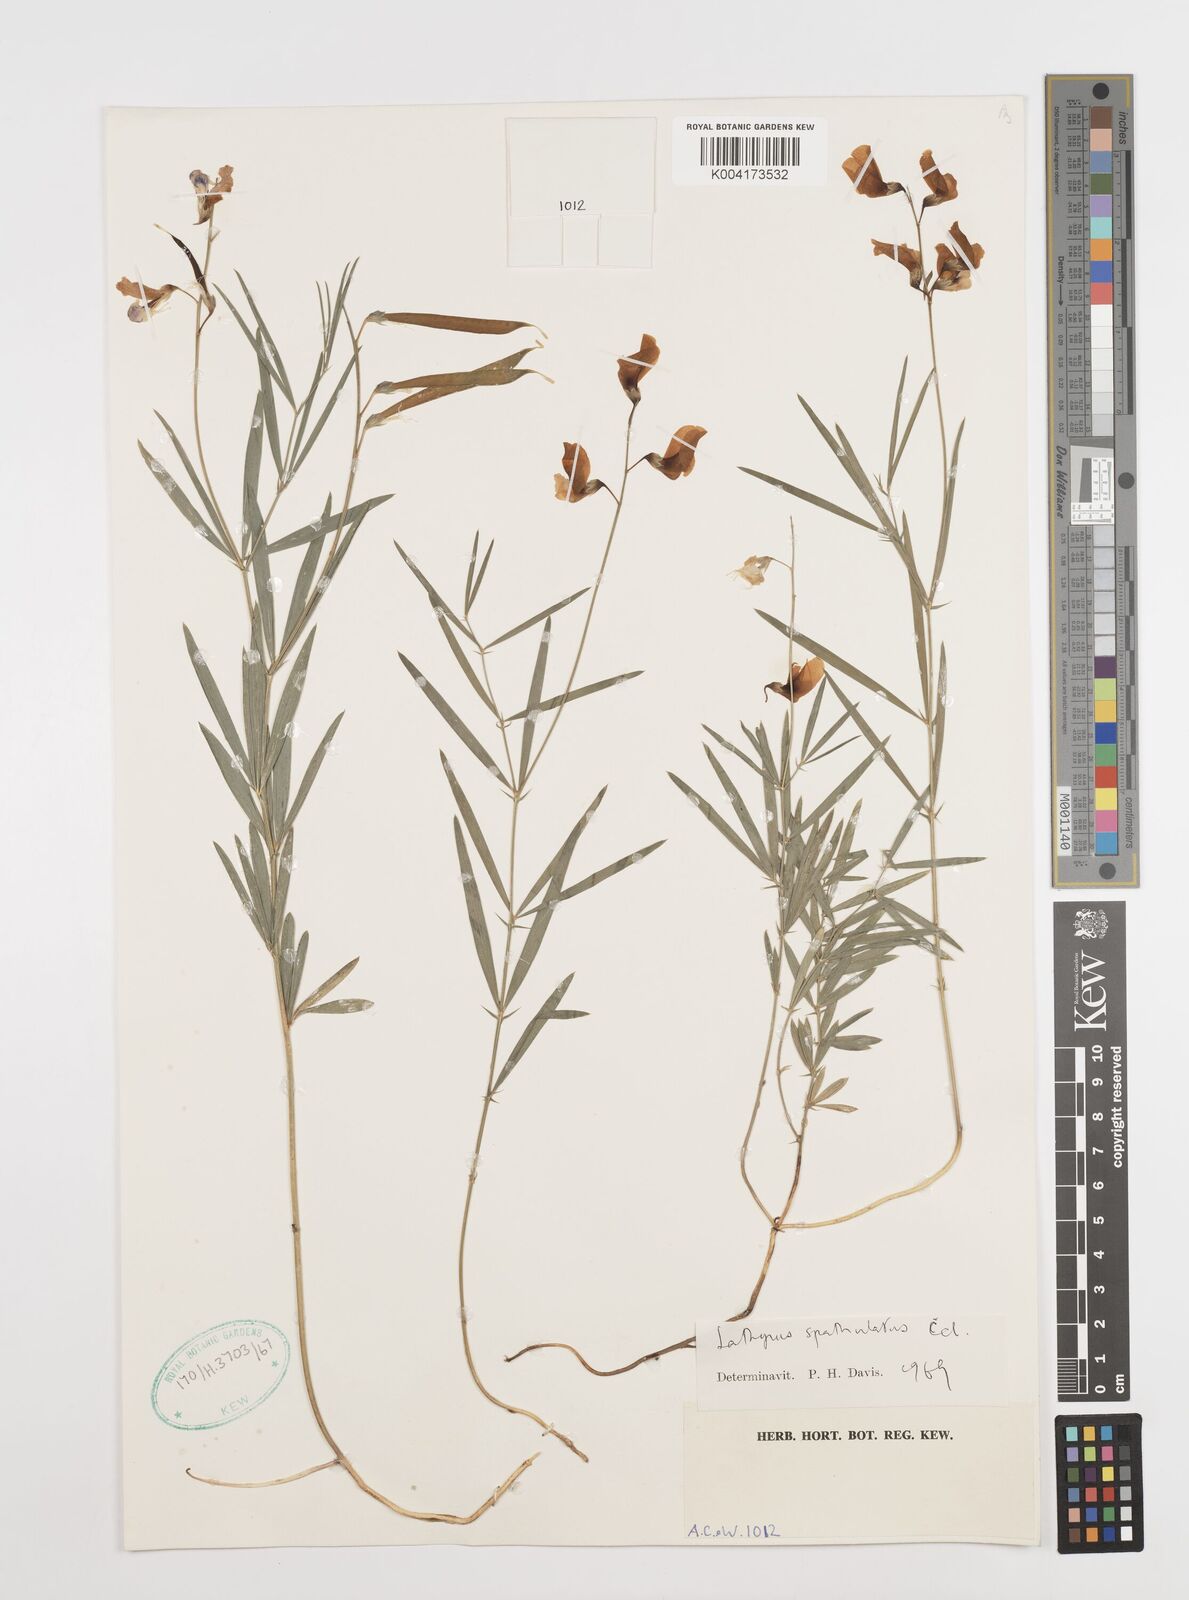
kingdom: Plantae
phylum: Tracheophyta
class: Magnoliopsida
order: Fabales
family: Fabaceae
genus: Lathyrus
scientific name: Lathyrus spathulatus
